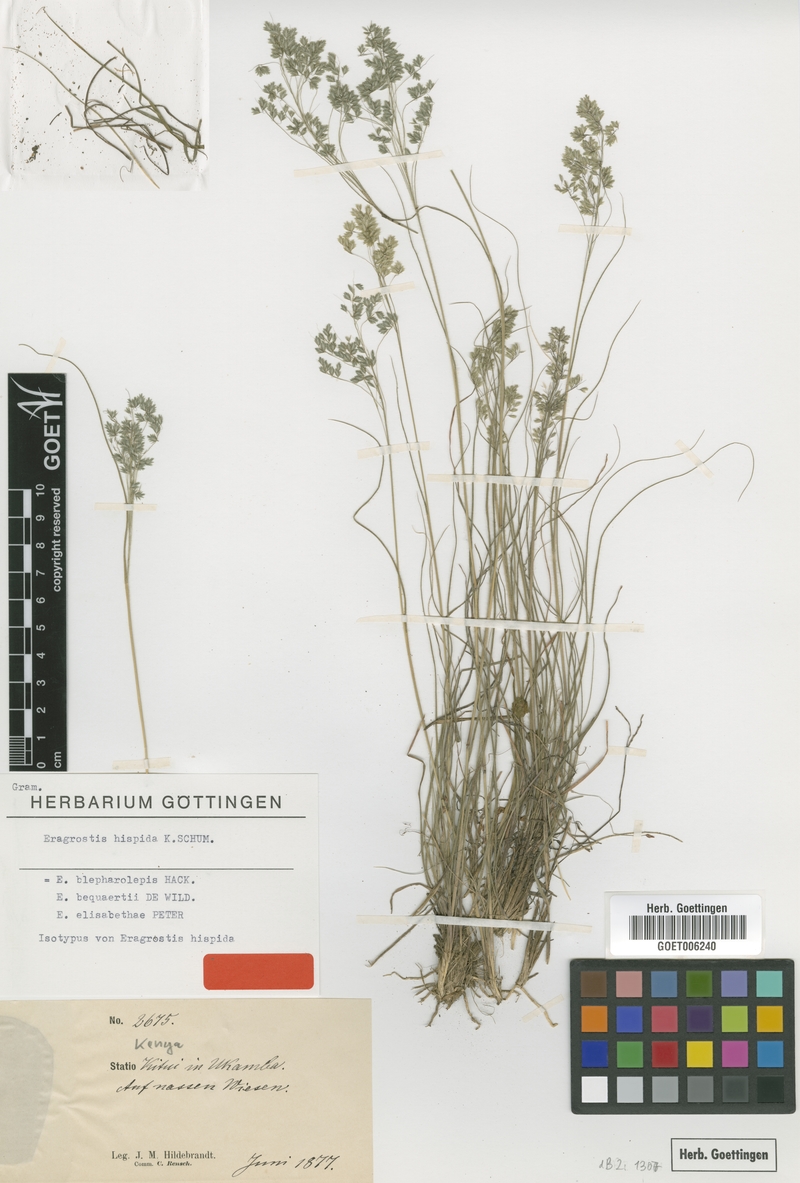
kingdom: Plantae
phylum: Tracheophyta
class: Liliopsida
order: Poales
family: Poaceae
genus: Eragrostis
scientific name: Eragrostis hispida
